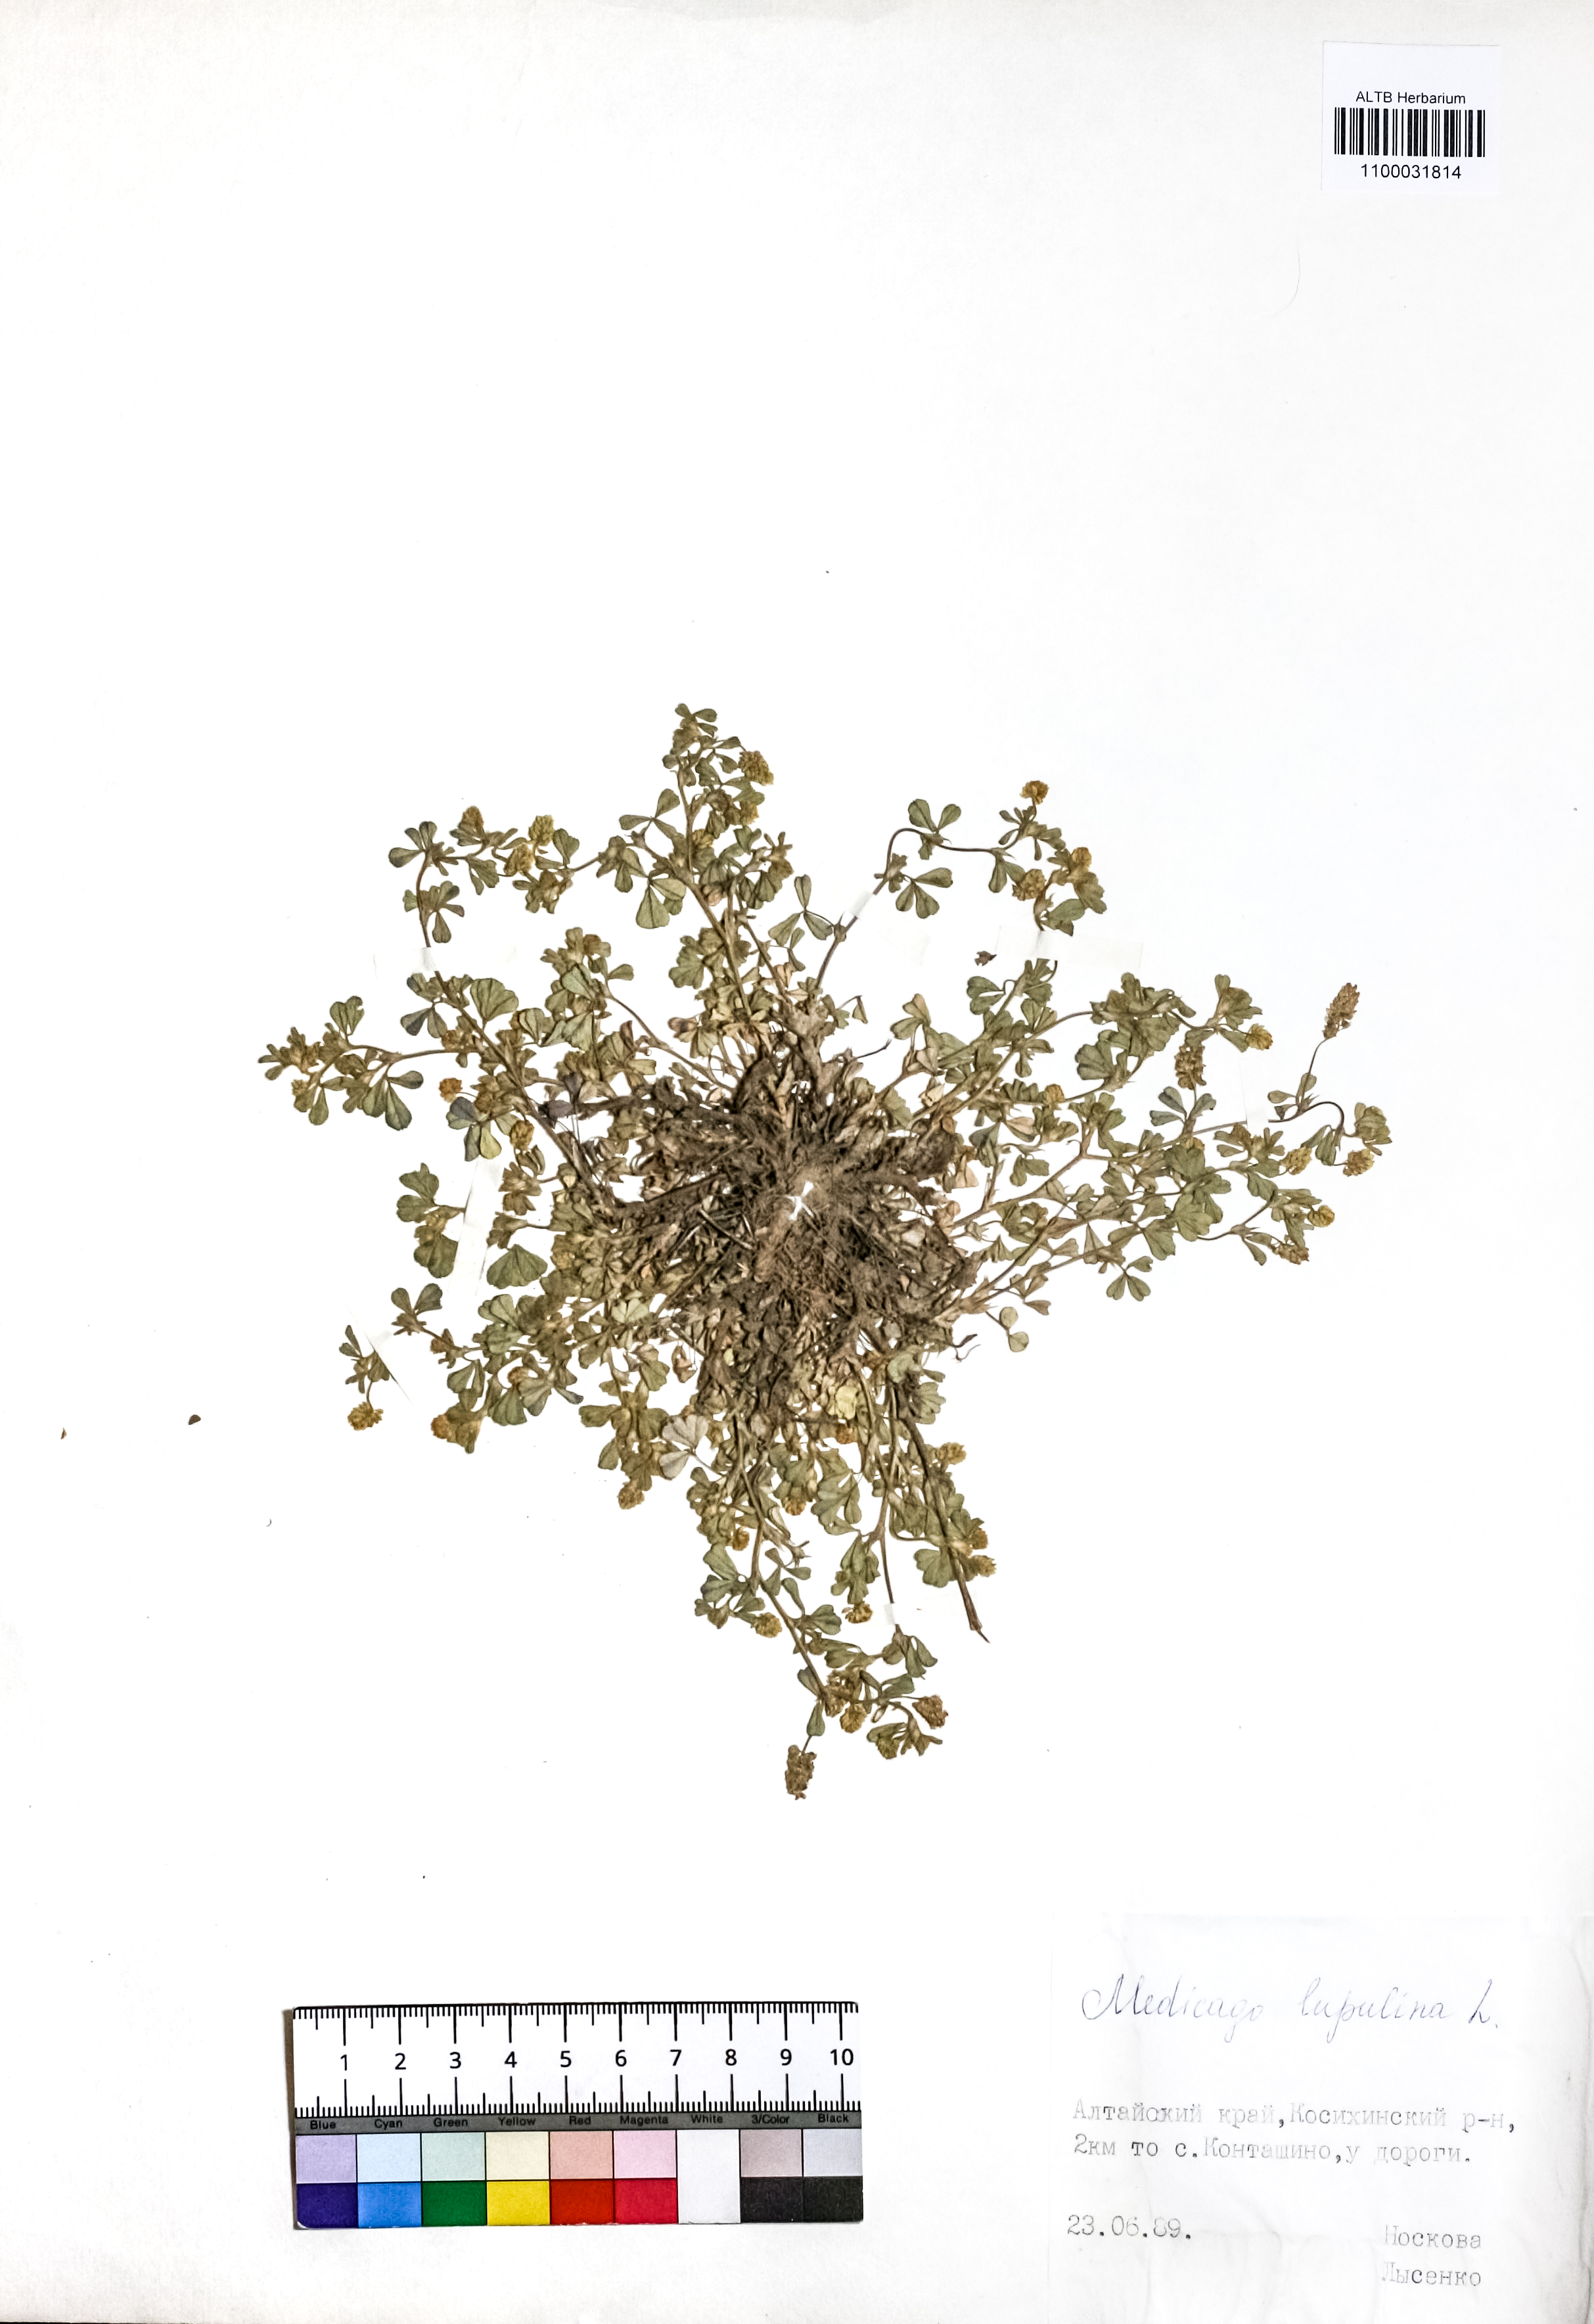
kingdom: Plantae
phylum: Tracheophyta
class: Magnoliopsida
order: Fabales
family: Fabaceae
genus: Medicago
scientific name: Medicago lupulina
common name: Black medick
